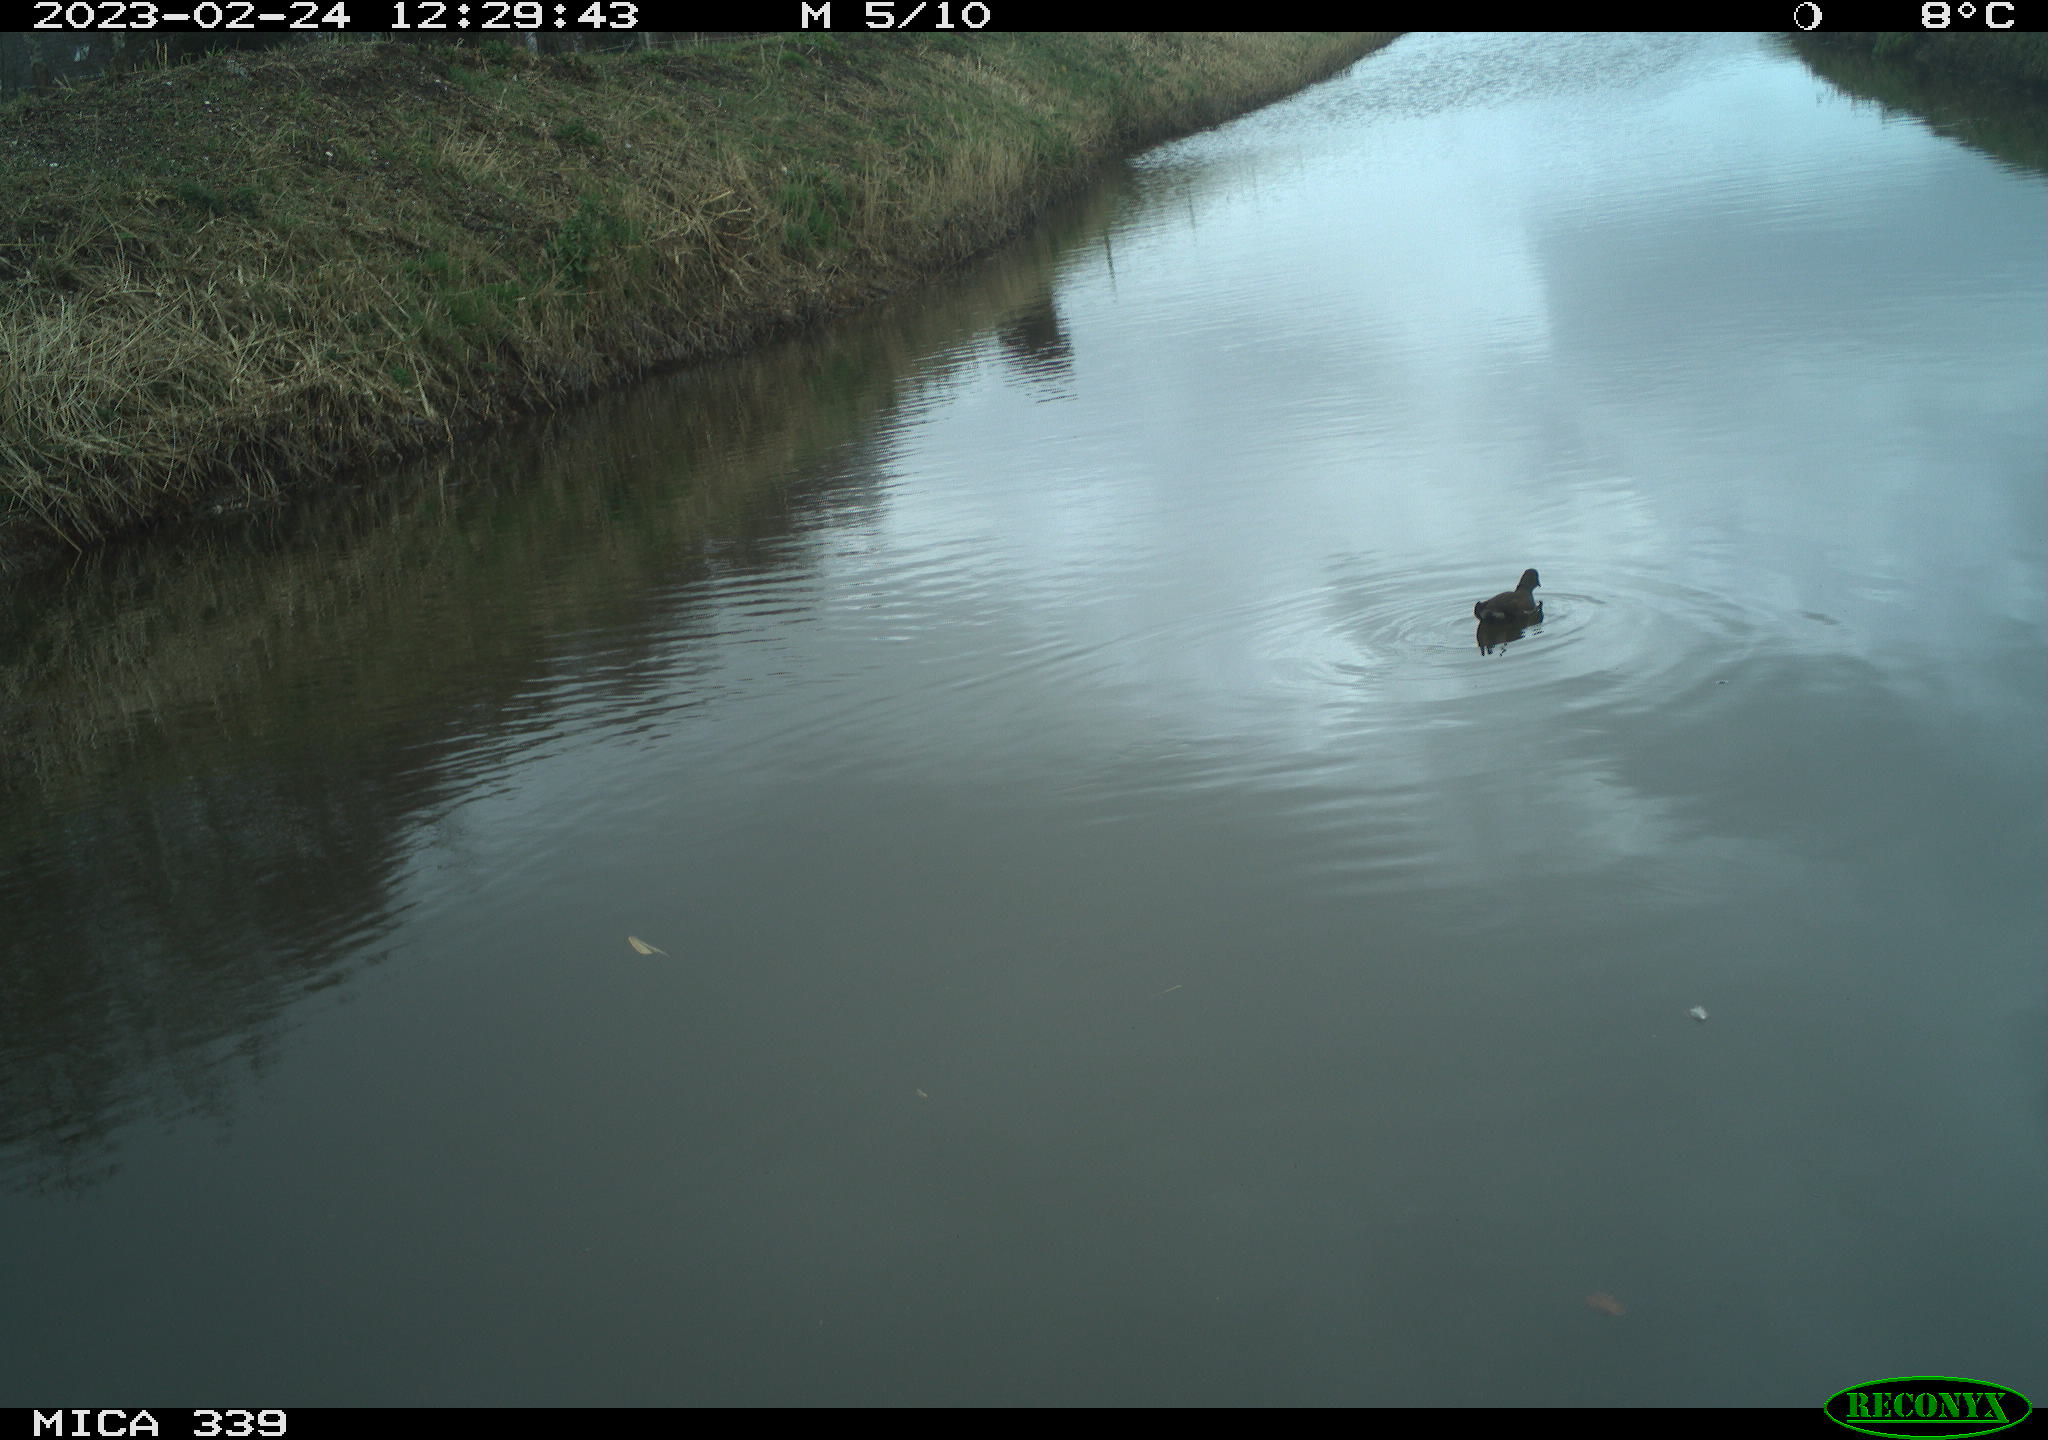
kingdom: Animalia
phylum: Chordata
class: Aves
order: Gruiformes
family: Rallidae
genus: Gallinula
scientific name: Gallinula chloropus
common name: Common moorhen
